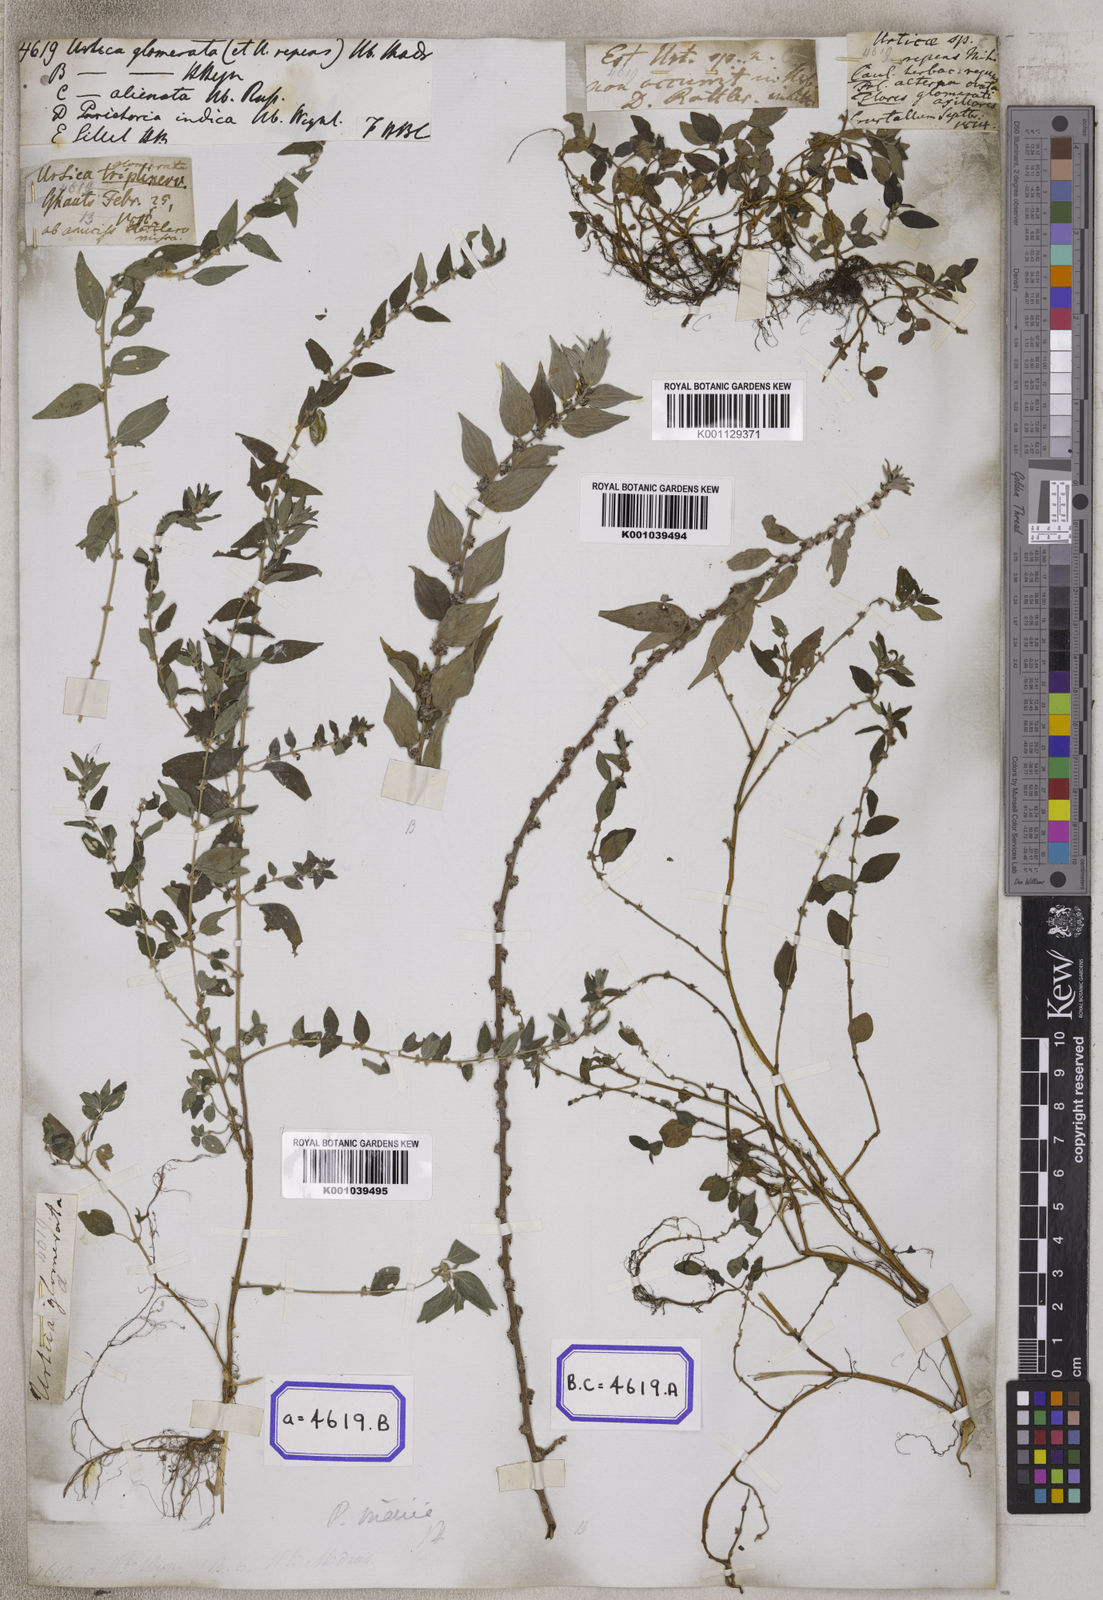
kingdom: Plantae
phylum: Tracheophyta
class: Magnoliopsida
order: Rosales
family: Urticaceae
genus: Pouzolzia
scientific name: Pouzolzia zeylanica
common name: Graceful pouzolzsbush
